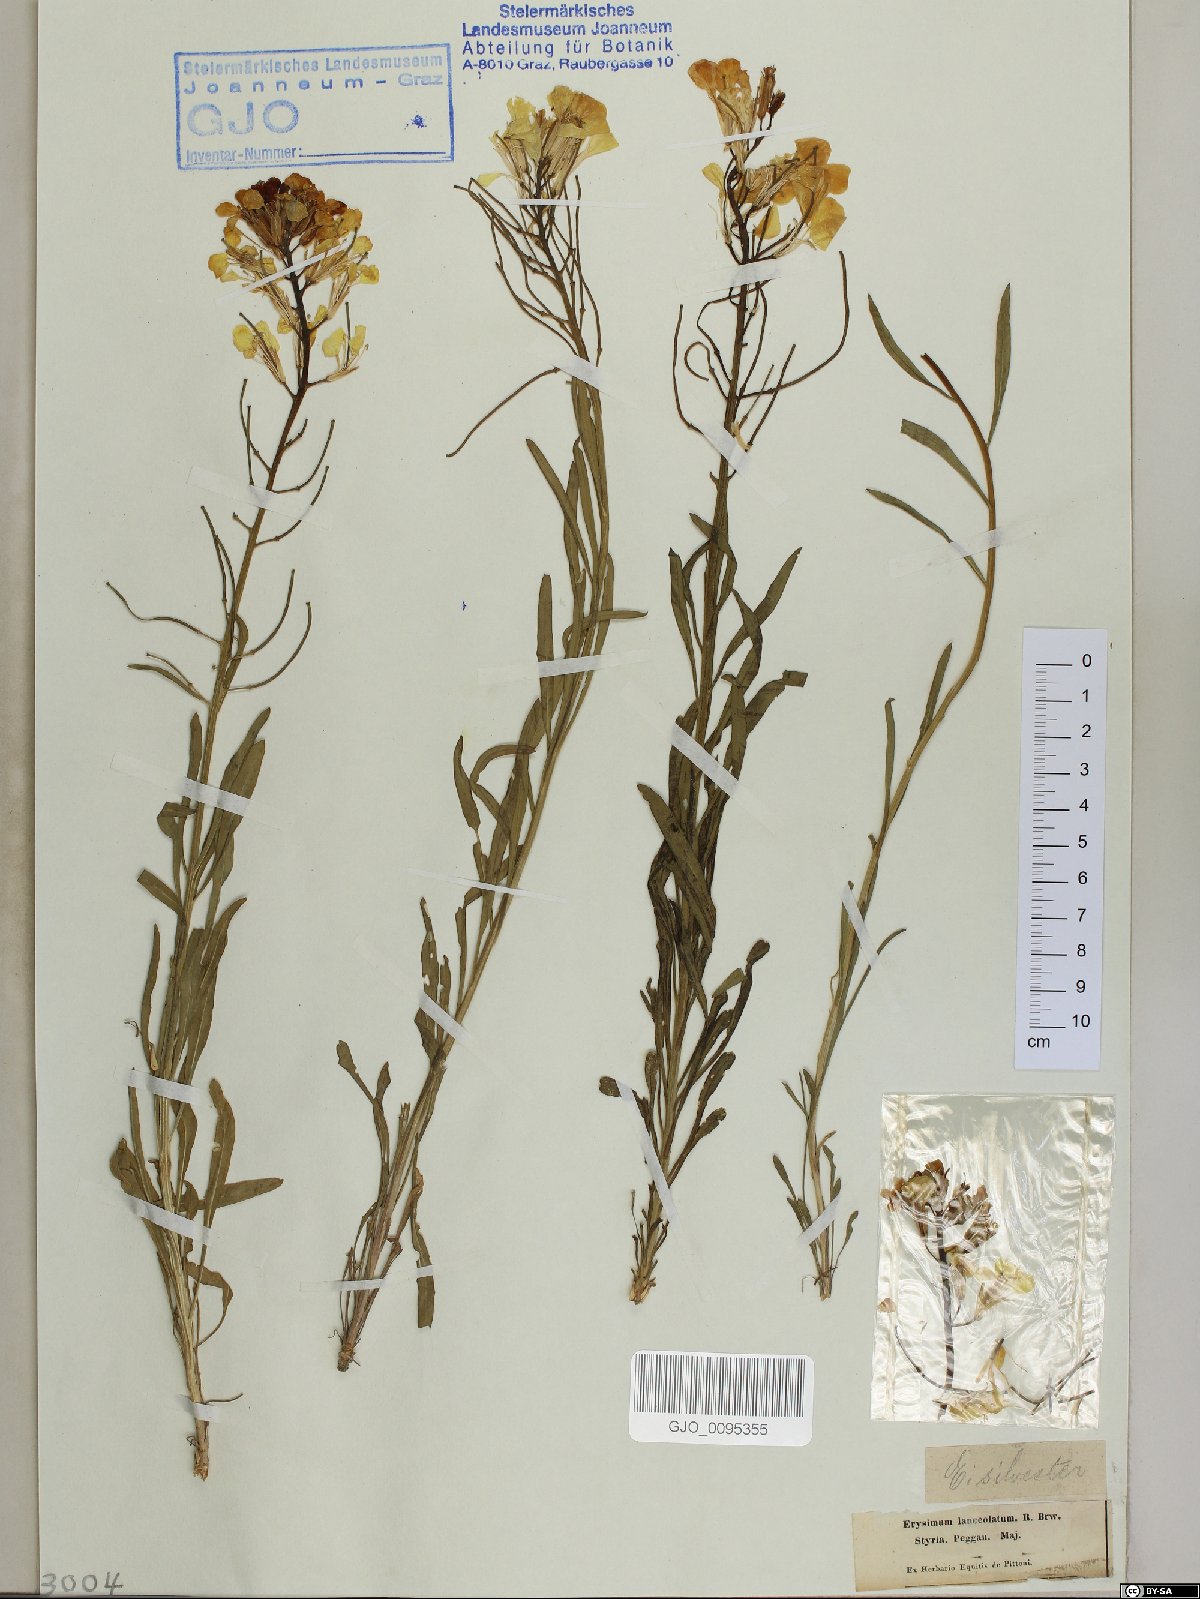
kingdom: Plantae
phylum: Tracheophyta
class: Magnoliopsida
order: Brassicales
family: Brassicaceae
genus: Erysimum
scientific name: Erysimum sylvestre
